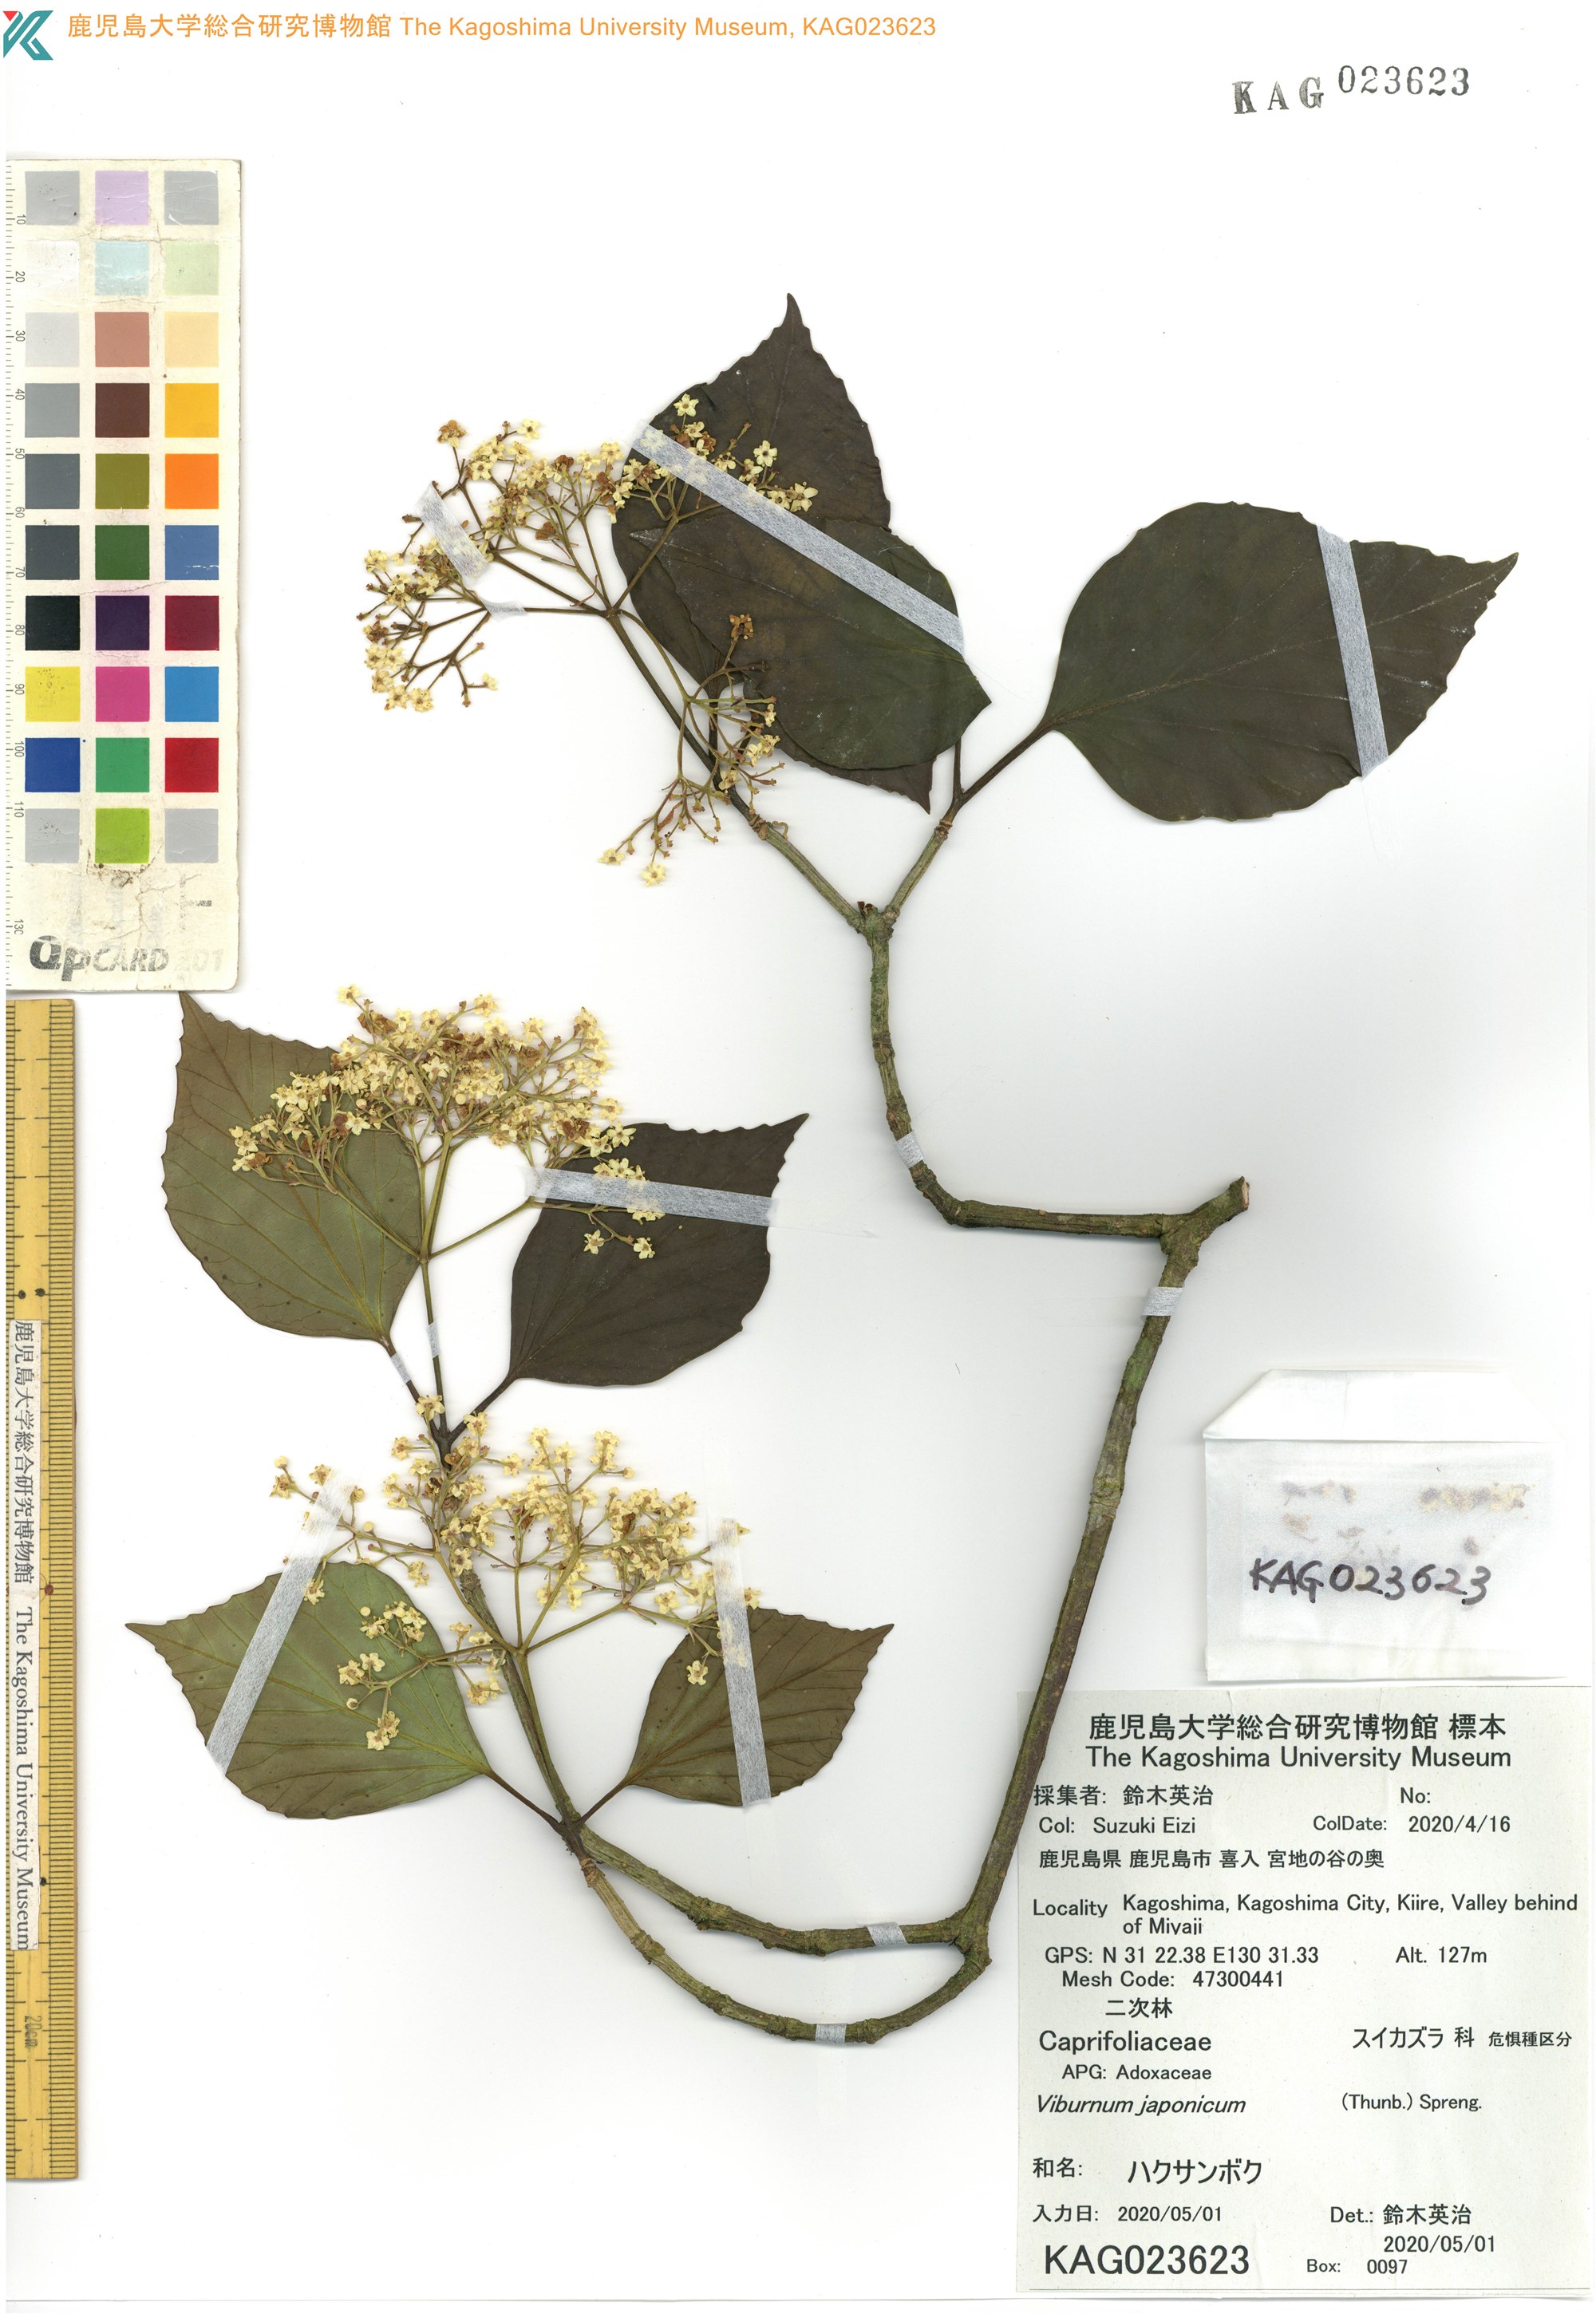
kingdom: Plantae
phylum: Tracheophyta
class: Magnoliopsida
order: Dipsacales
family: Viburnaceae
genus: Viburnum
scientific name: Viburnum japonicum
